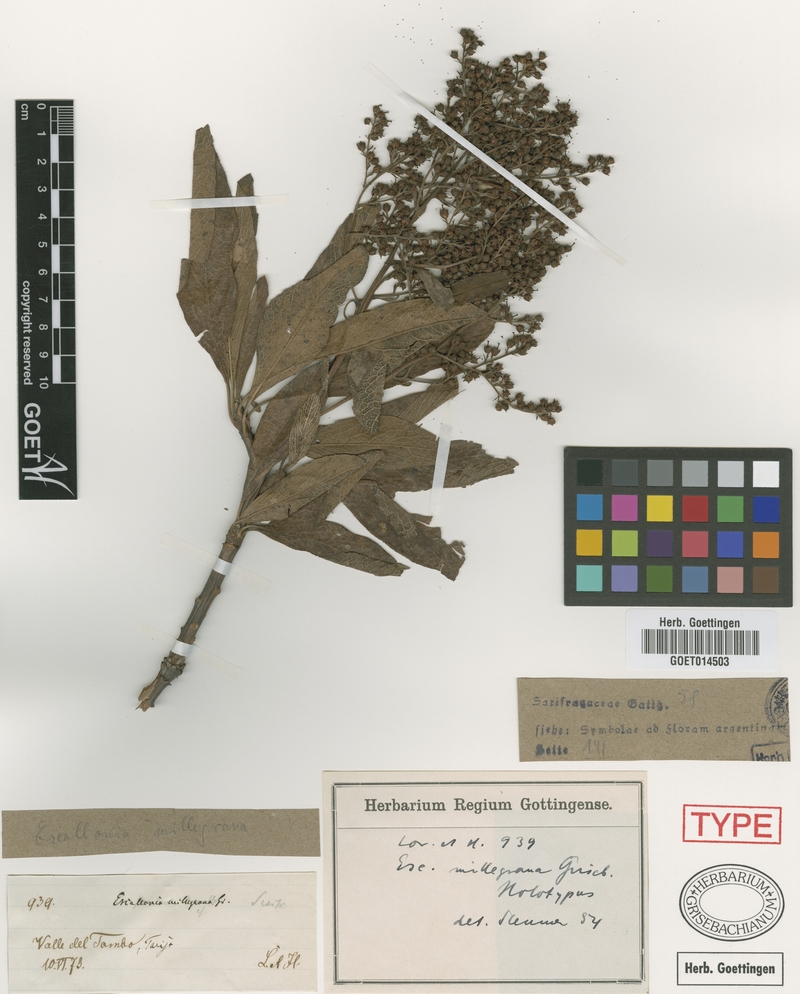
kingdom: Plantae
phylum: Tracheophyta
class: Magnoliopsida
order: Escalloniales
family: Escalloniaceae
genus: Escallonia
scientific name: Escallonia millegrana
